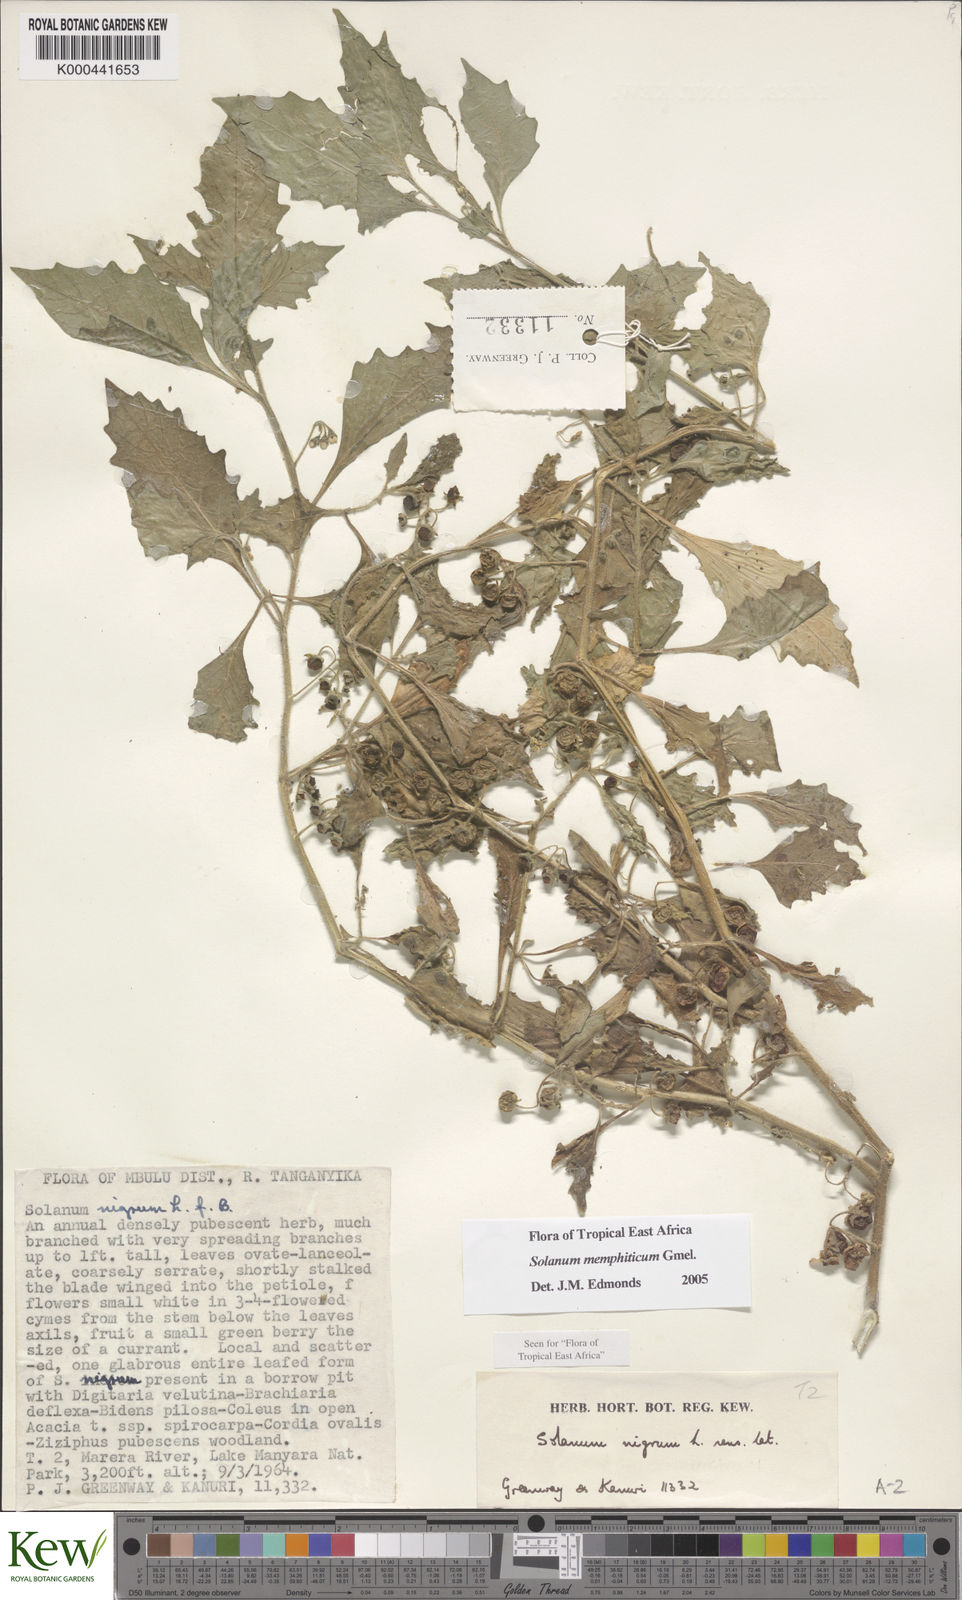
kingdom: Plantae
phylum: Tracheophyta
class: Magnoliopsida
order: Solanales
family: Solanaceae
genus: Solanum
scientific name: Solanum memphiticum
